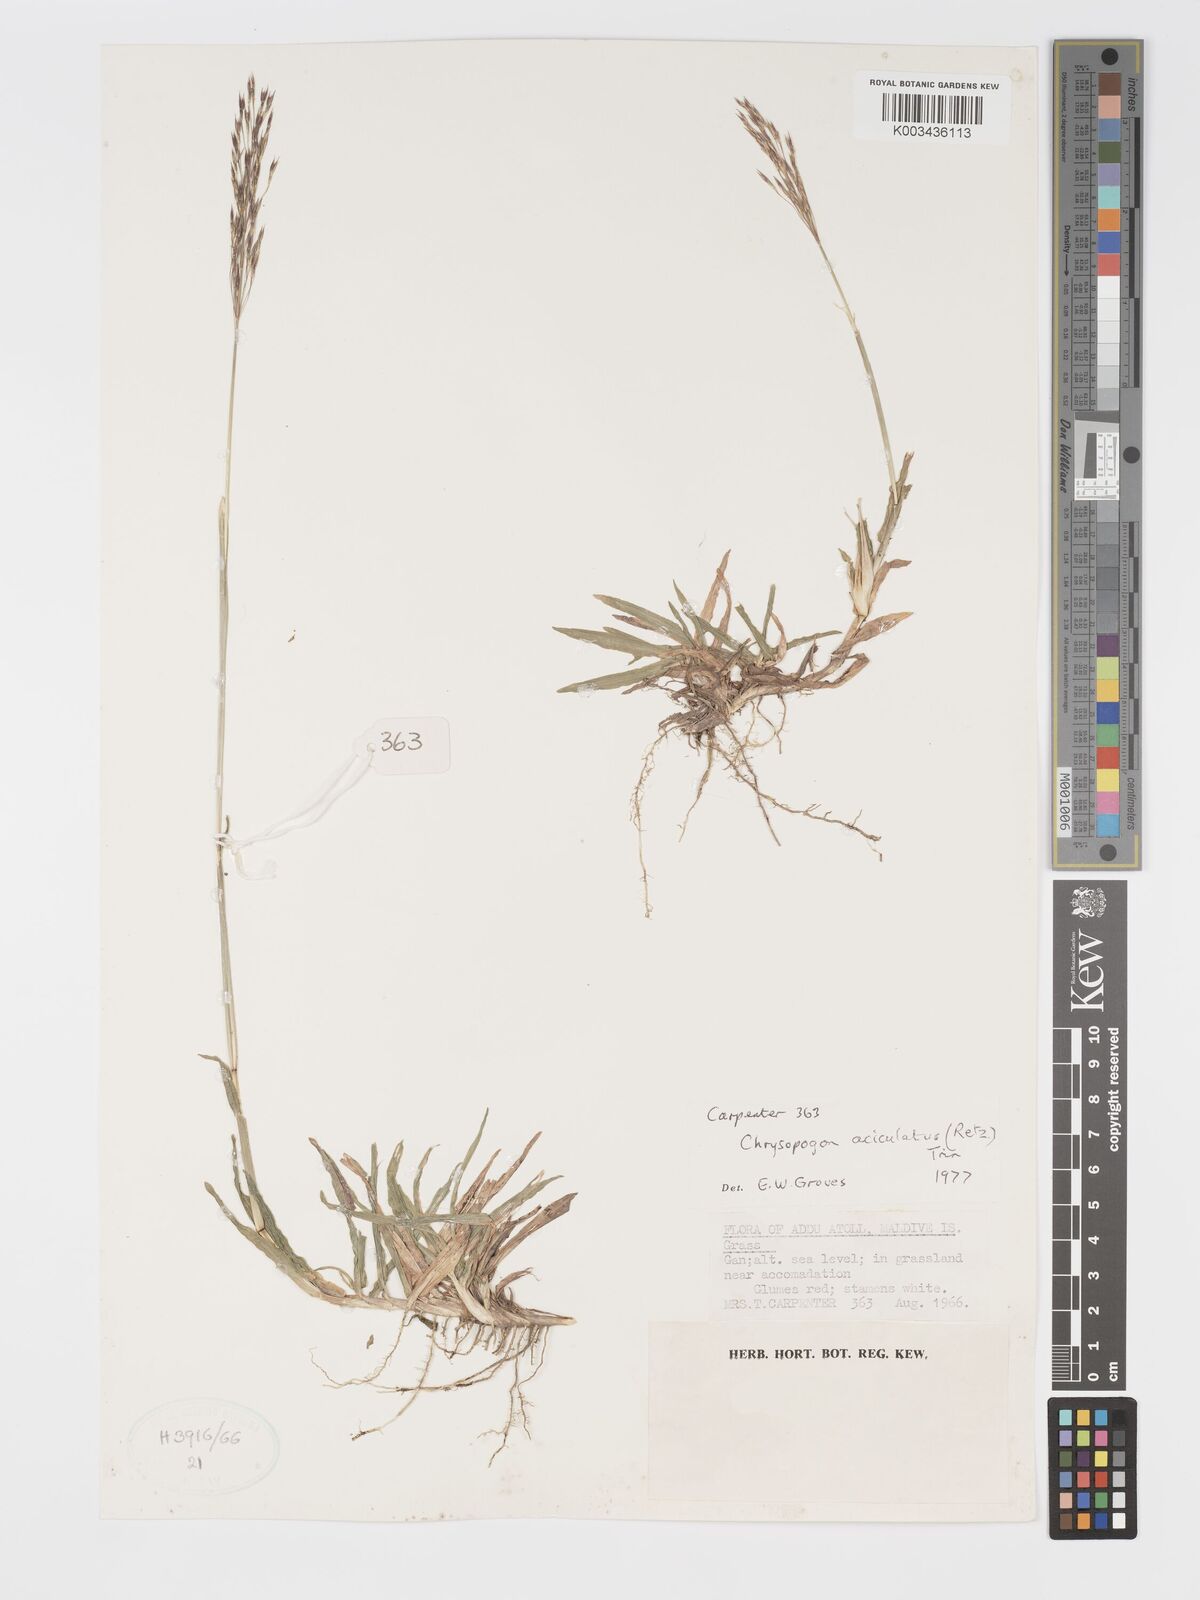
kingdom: Plantae
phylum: Tracheophyta
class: Liliopsida
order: Poales
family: Poaceae
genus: Chrysopogon
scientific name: Chrysopogon aciculatus
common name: Pilipiliula
